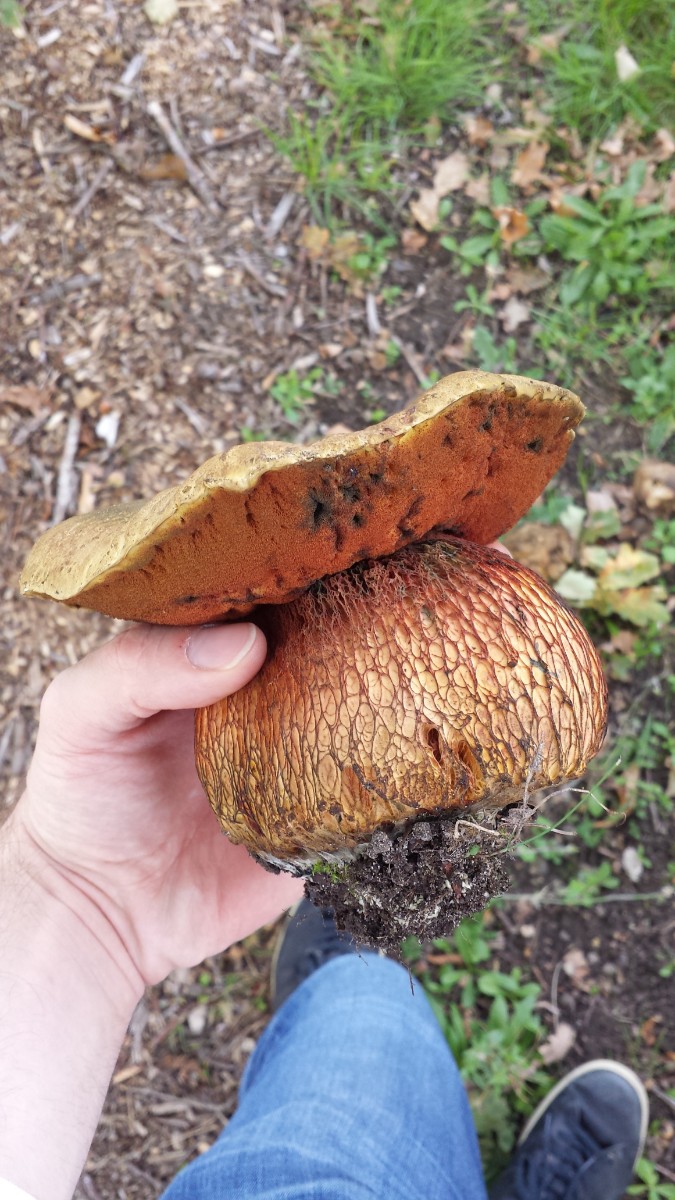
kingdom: Fungi
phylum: Basidiomycota
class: Agaricomycetes
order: Boletales
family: Boletaceae
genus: Suillellus
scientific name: Suillellus luridus
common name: netstokket indigorørhat
